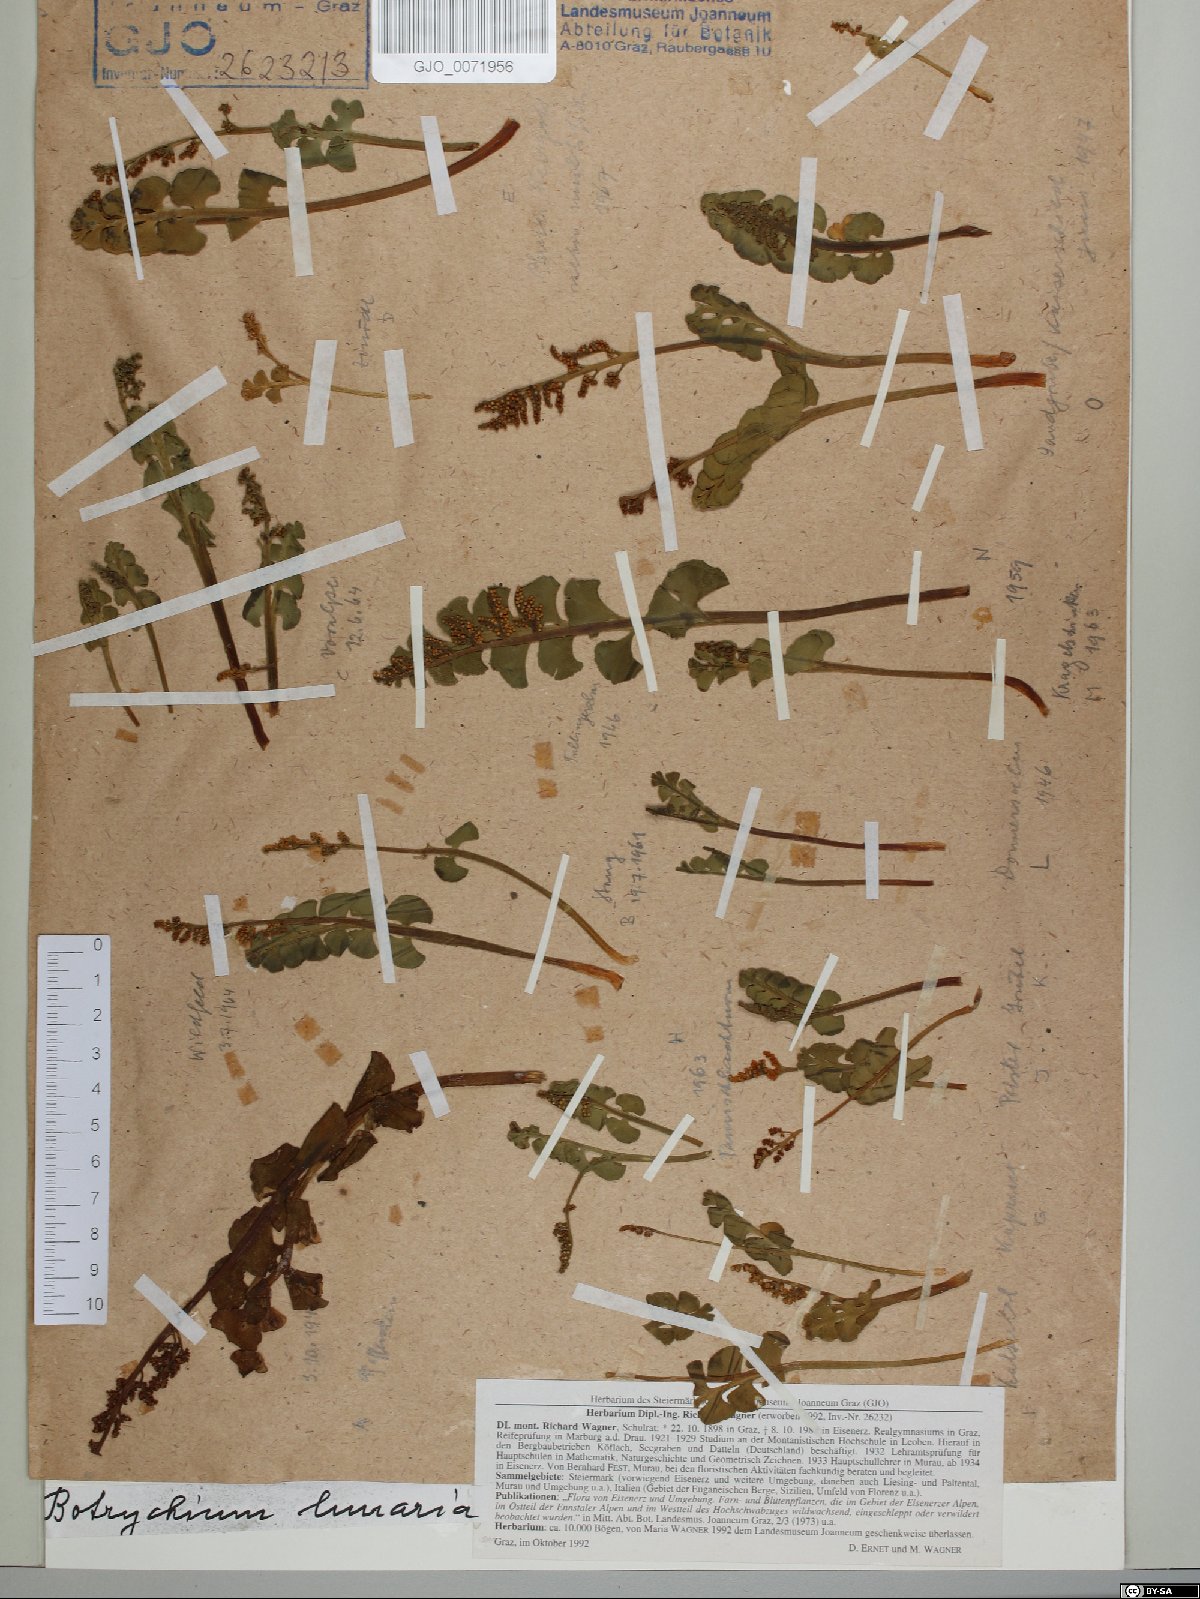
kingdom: Plantae
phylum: Tracheophyta
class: Polypodiopsida
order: Ophioglossales
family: Ophioglossaceae
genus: Botrychium
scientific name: Botrychium lunaria
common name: Moonwort
